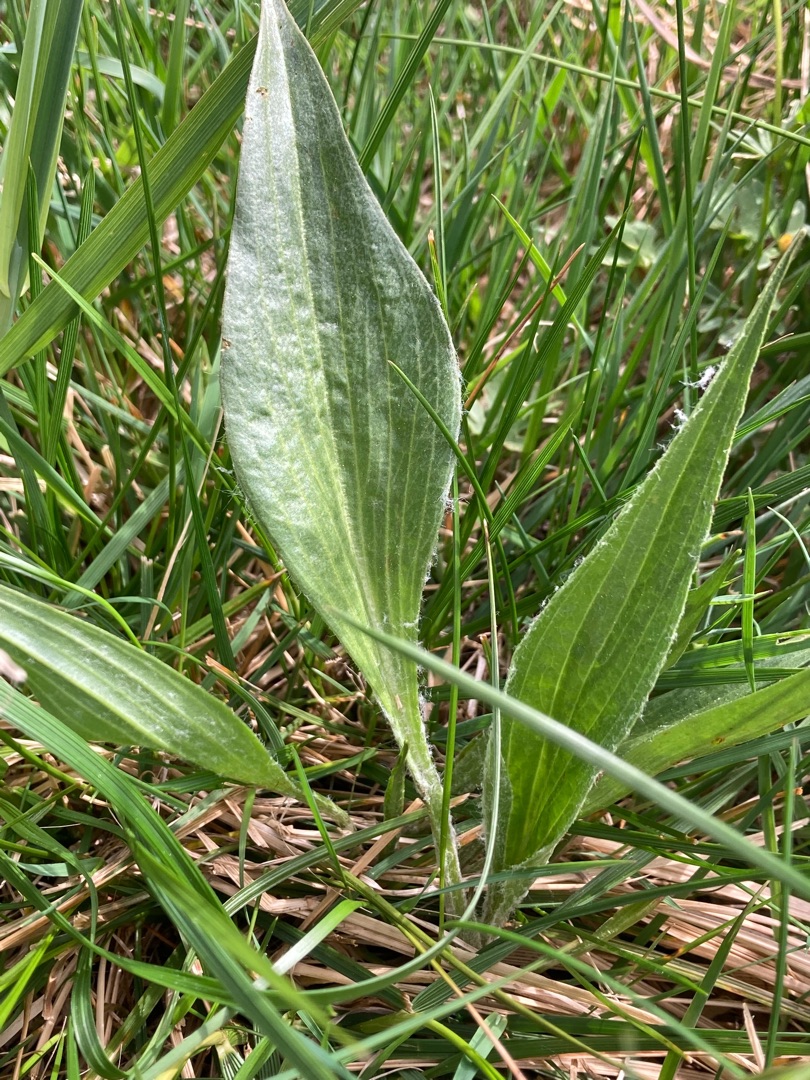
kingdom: Plantae
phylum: Tracheophyta
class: Magnoliopsida
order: Asterales
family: Asteraceae
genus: Scorzonera
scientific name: Scorzonera humilis
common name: Lav skorsoner
